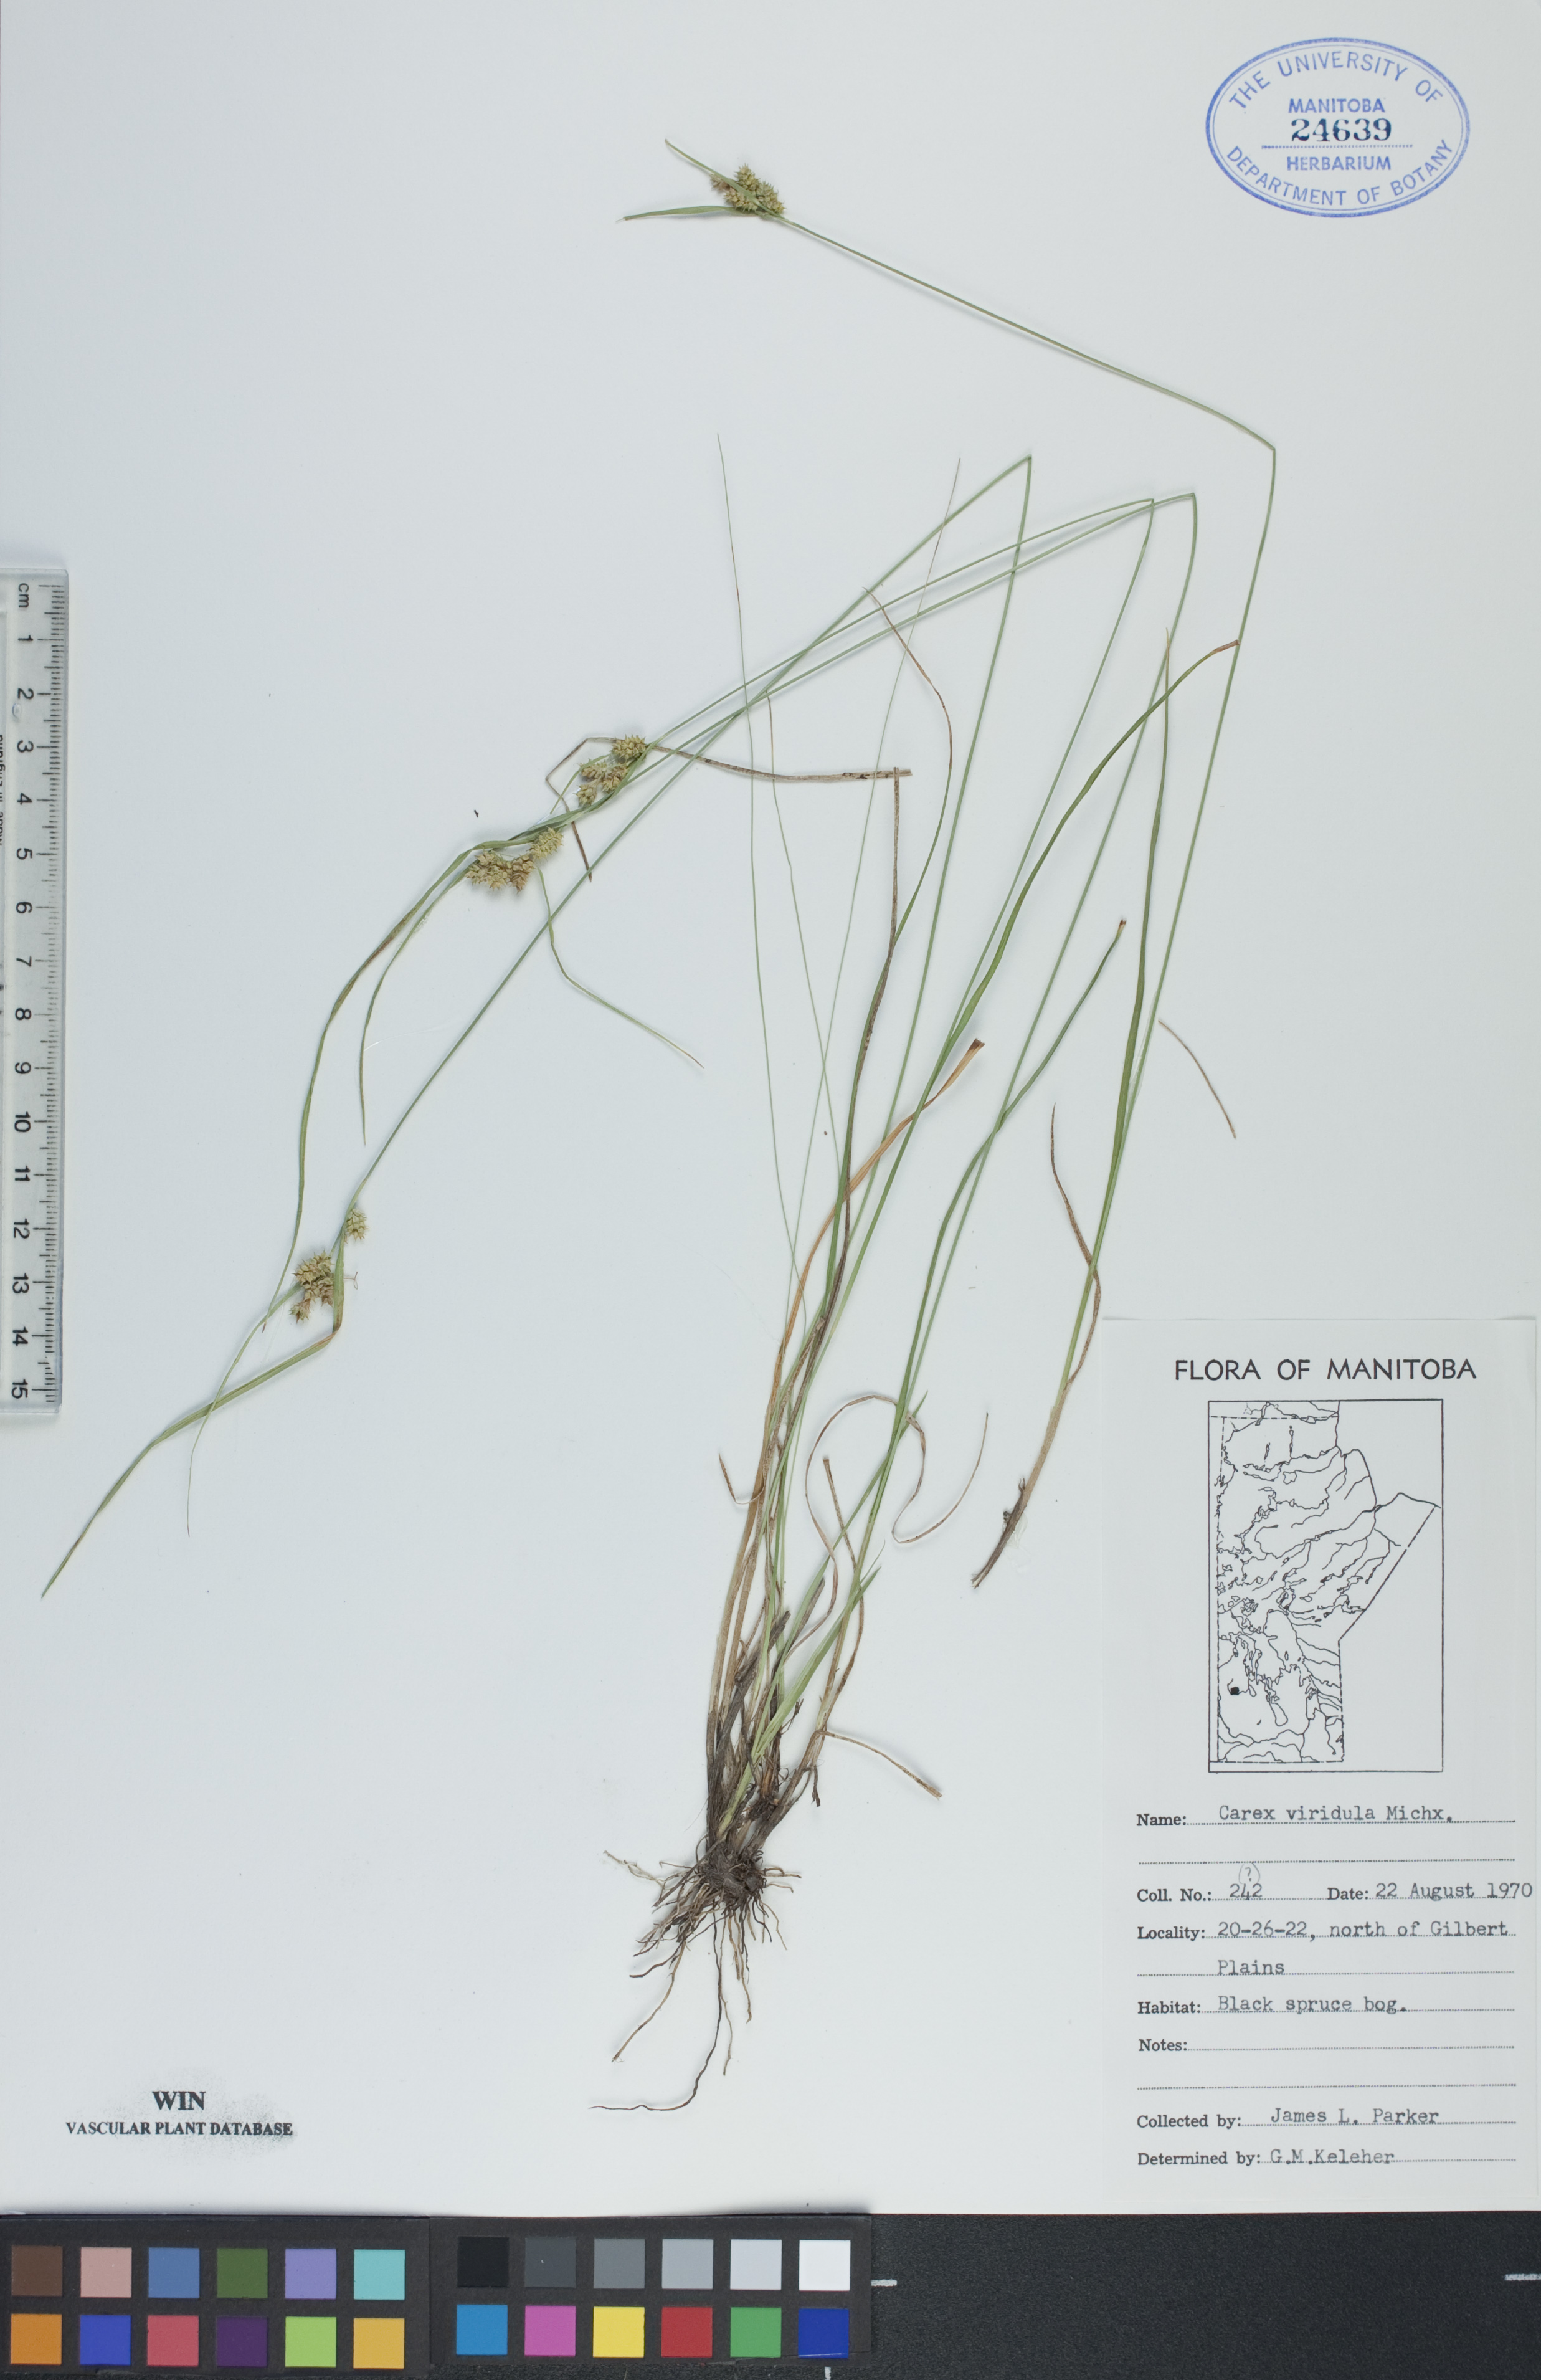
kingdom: Plantae
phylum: Tracheophyta
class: Liliopsida
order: Poales
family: Cyperaceae
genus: Carex
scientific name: Carex oederi
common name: Common & small-fruited yellow-sedge
